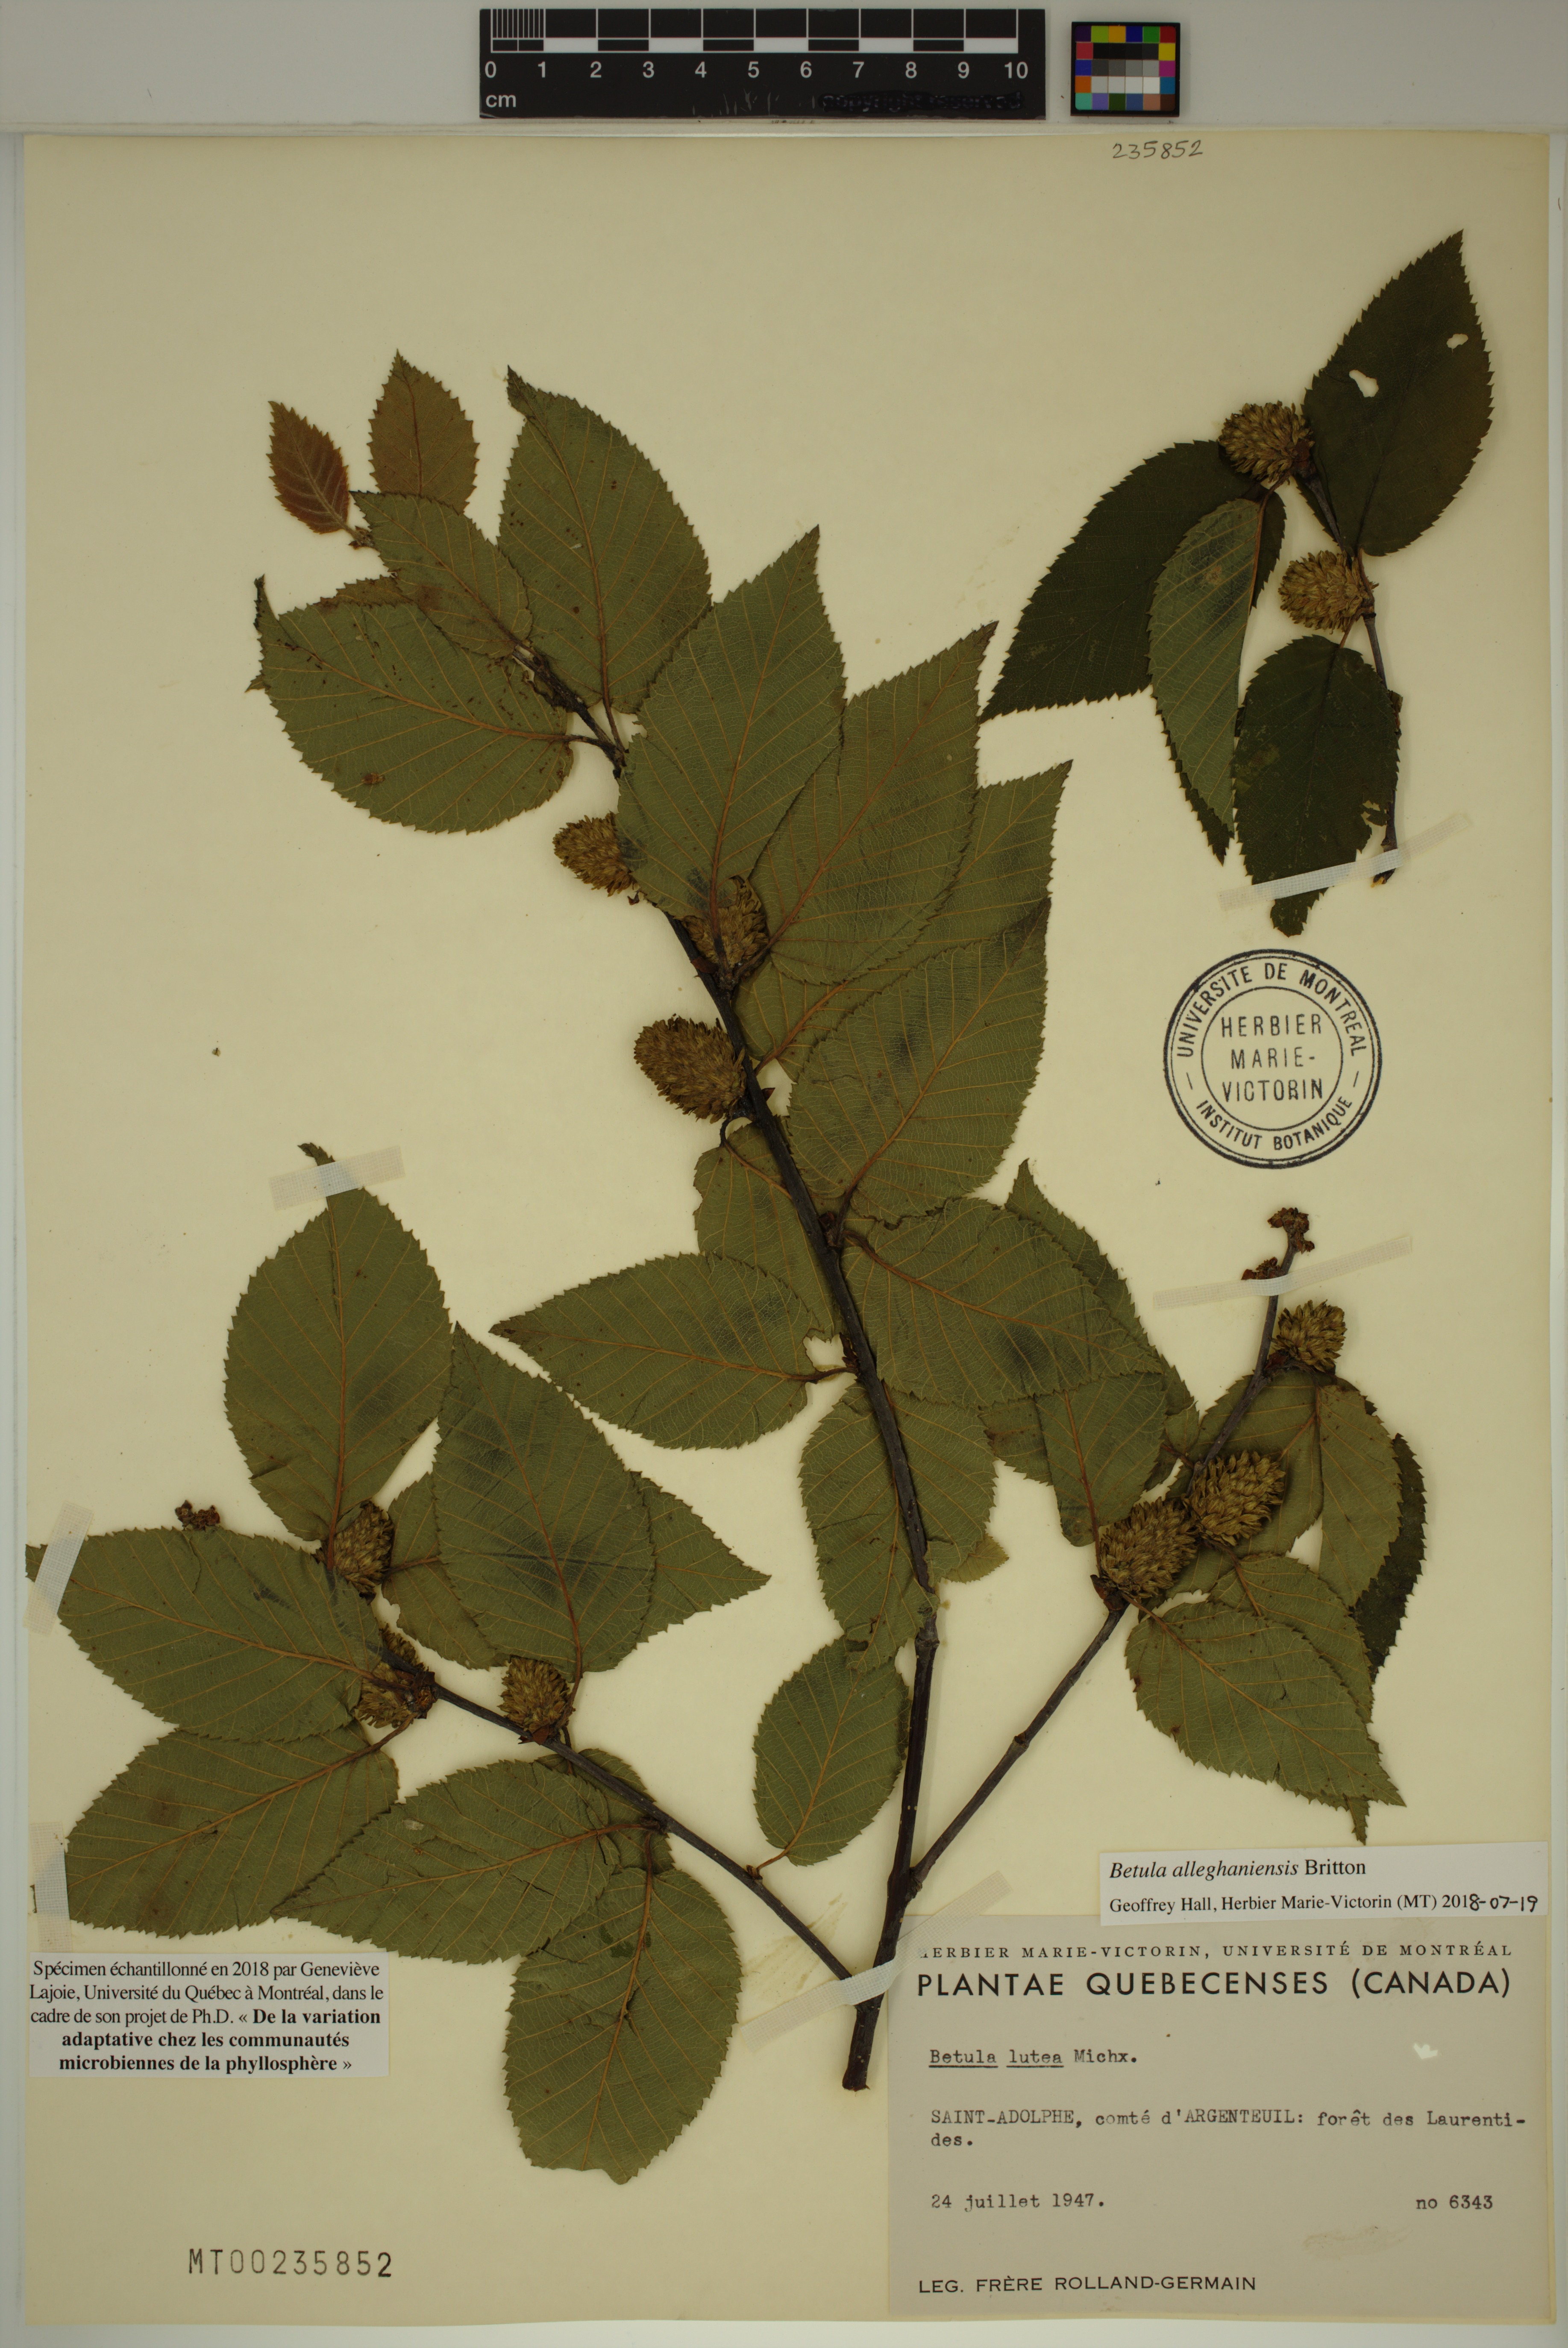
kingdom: Plantae
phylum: Tracheophyta
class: Magnoliopsida
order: Fagales
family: Betulaceae
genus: Betula
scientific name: Betula alleghaniensis
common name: Yellow birch
